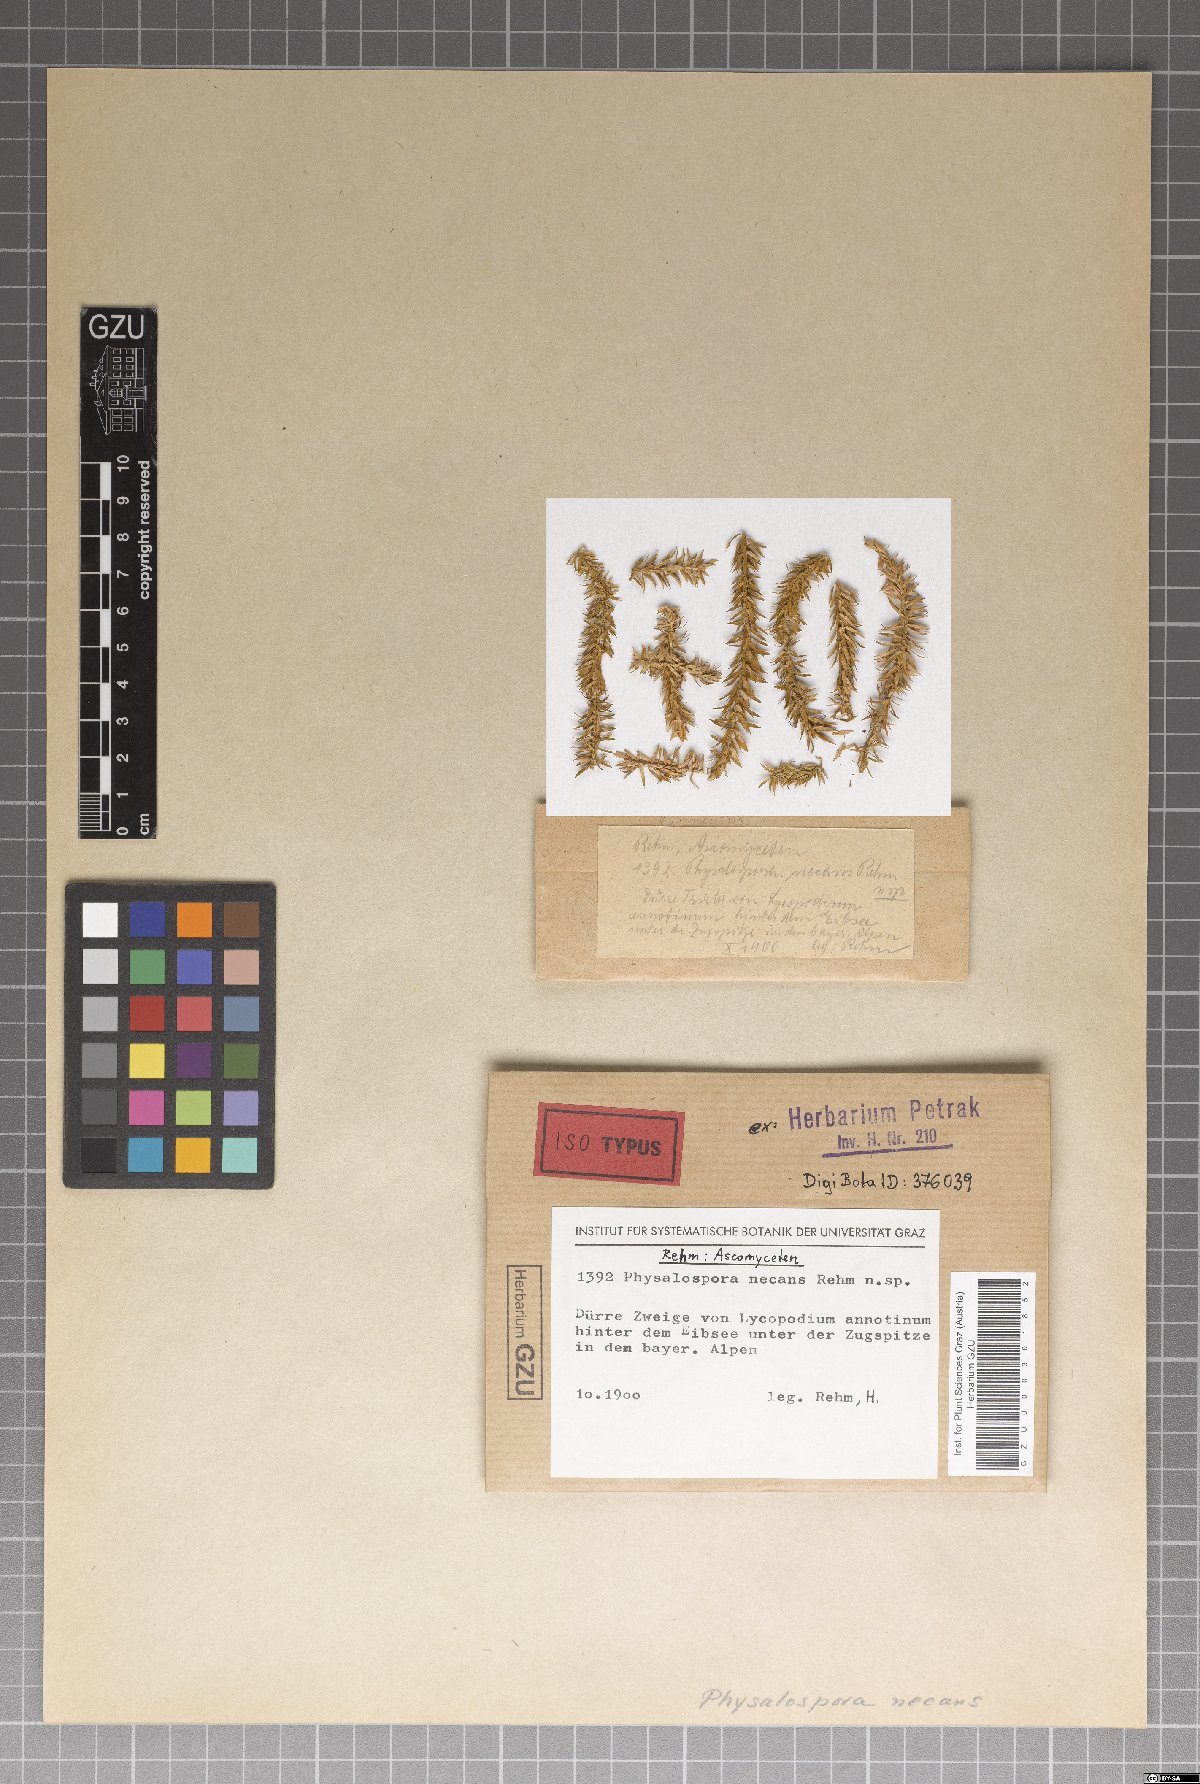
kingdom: Fungi
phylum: Ascomycota
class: Sordariomycetes
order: Xylariales
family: Pseudomassariaceae
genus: Pseudapiospora
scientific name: Pseudapiospora necans
